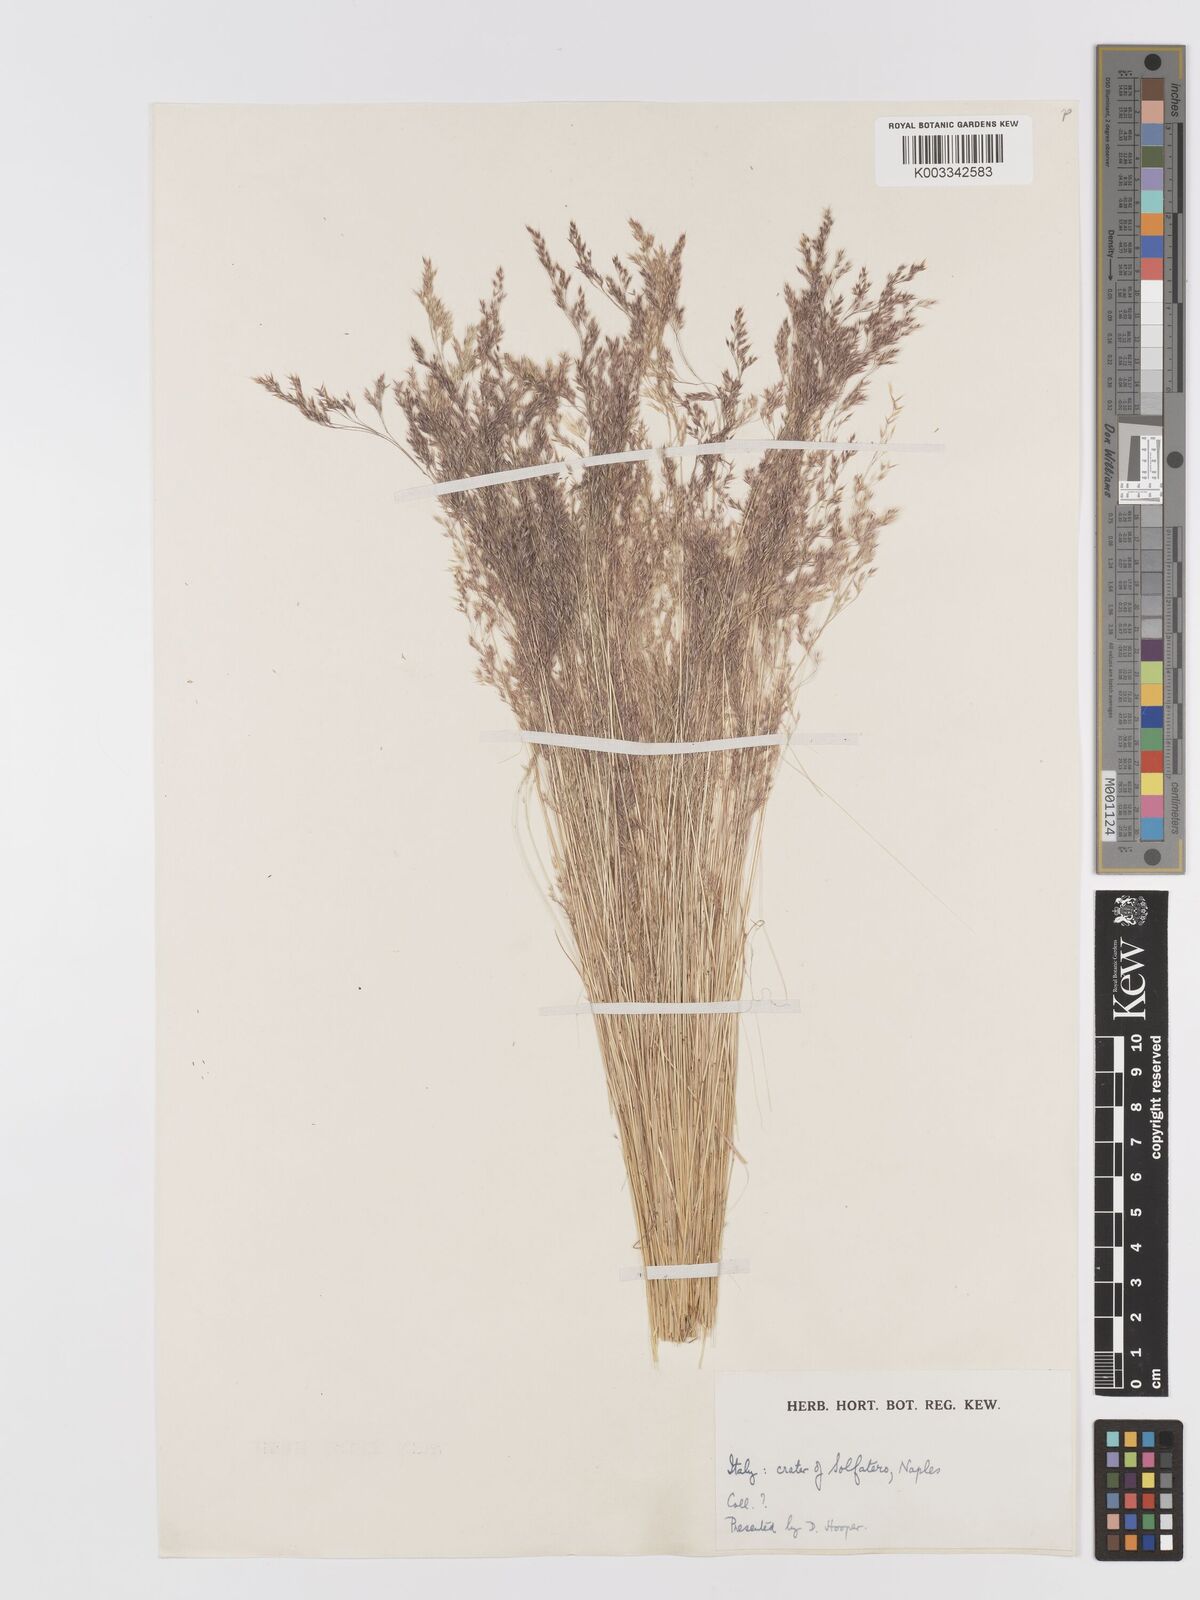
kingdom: Plantae
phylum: Tracheophyta
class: Liliopsida
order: Poales
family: Poaceae
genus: Agrostis
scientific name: Agrostis
